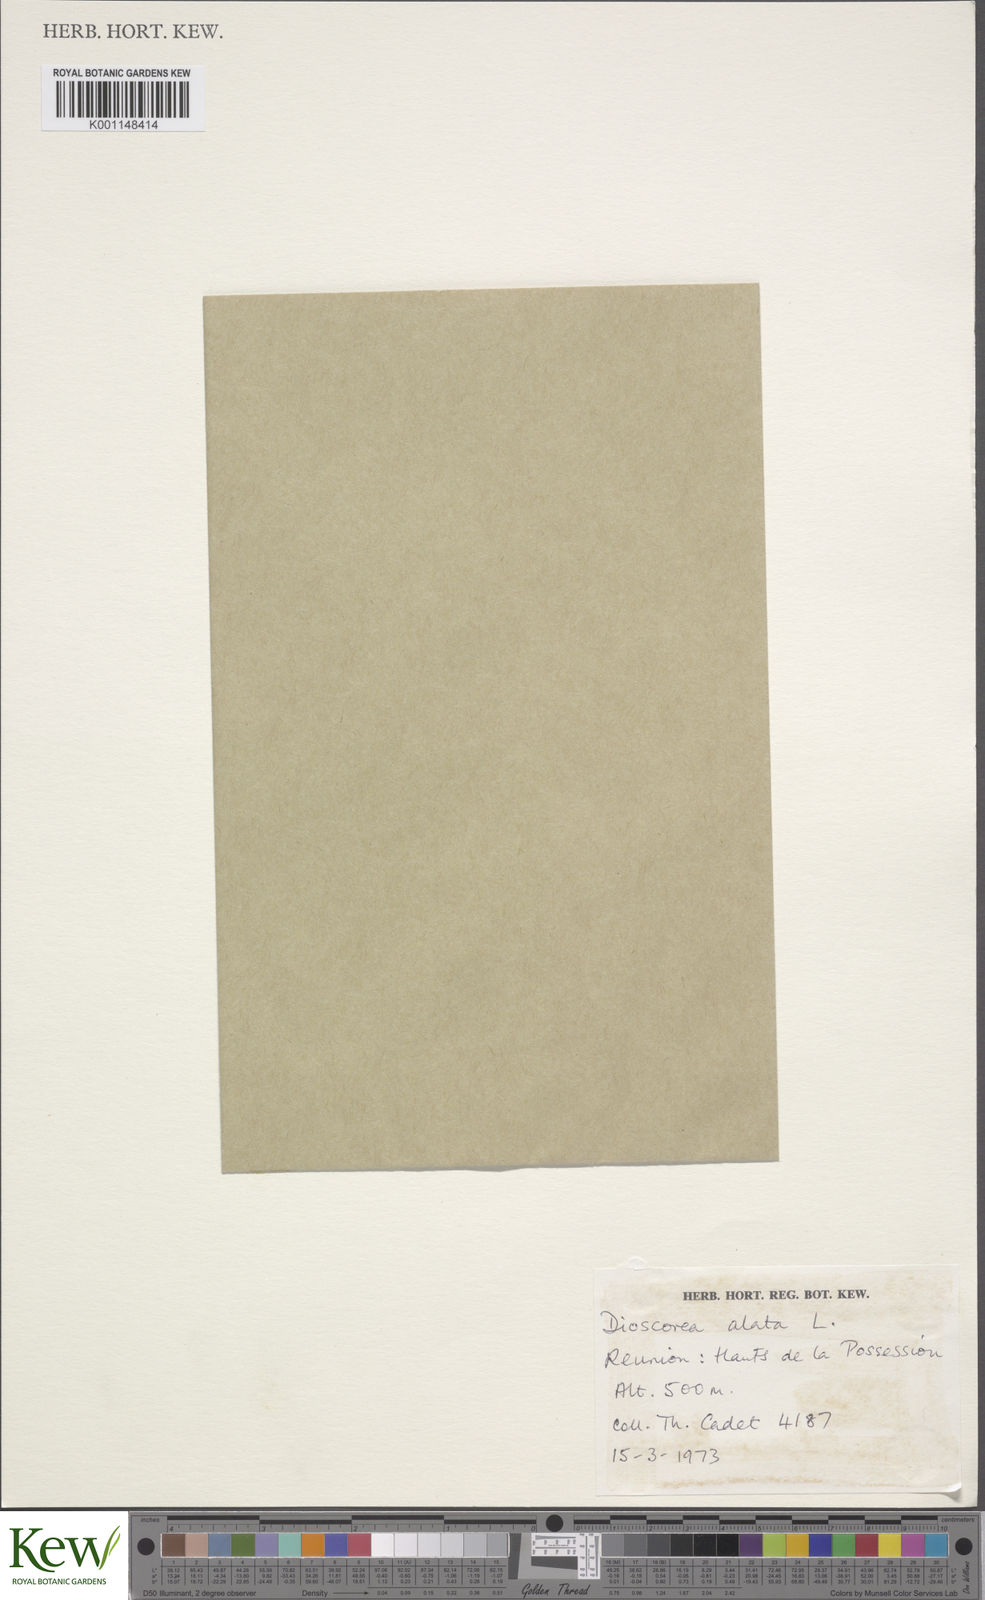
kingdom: Plantae
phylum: Tracheophyta
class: Liliopsida
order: Dioscoreales
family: Dioscoreaceae
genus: Dioscorea
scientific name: Dioscorea alata
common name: Water yam
